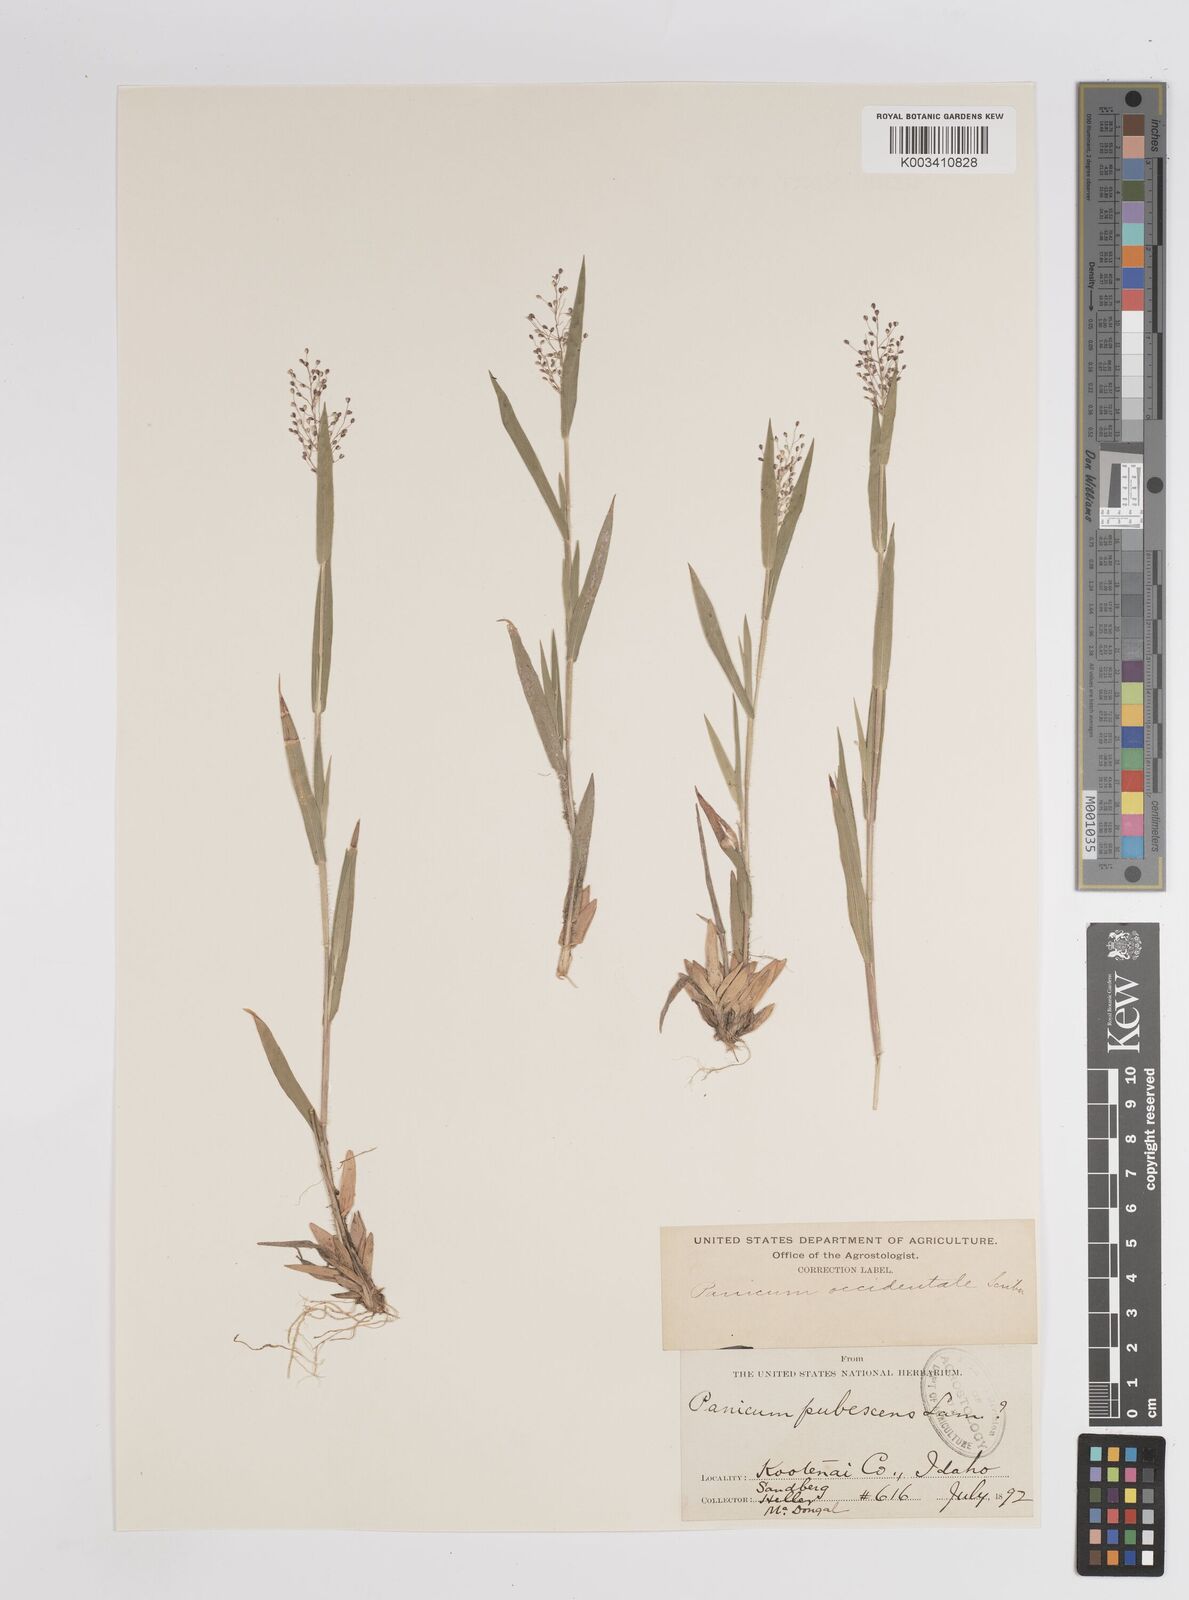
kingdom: Plantae
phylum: Tracheophyta
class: Liliopsida
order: Poales
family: Poaceae
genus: Dichanthelium
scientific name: Dichanthelium implicatum
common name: Slender-stemmed panicgrass
